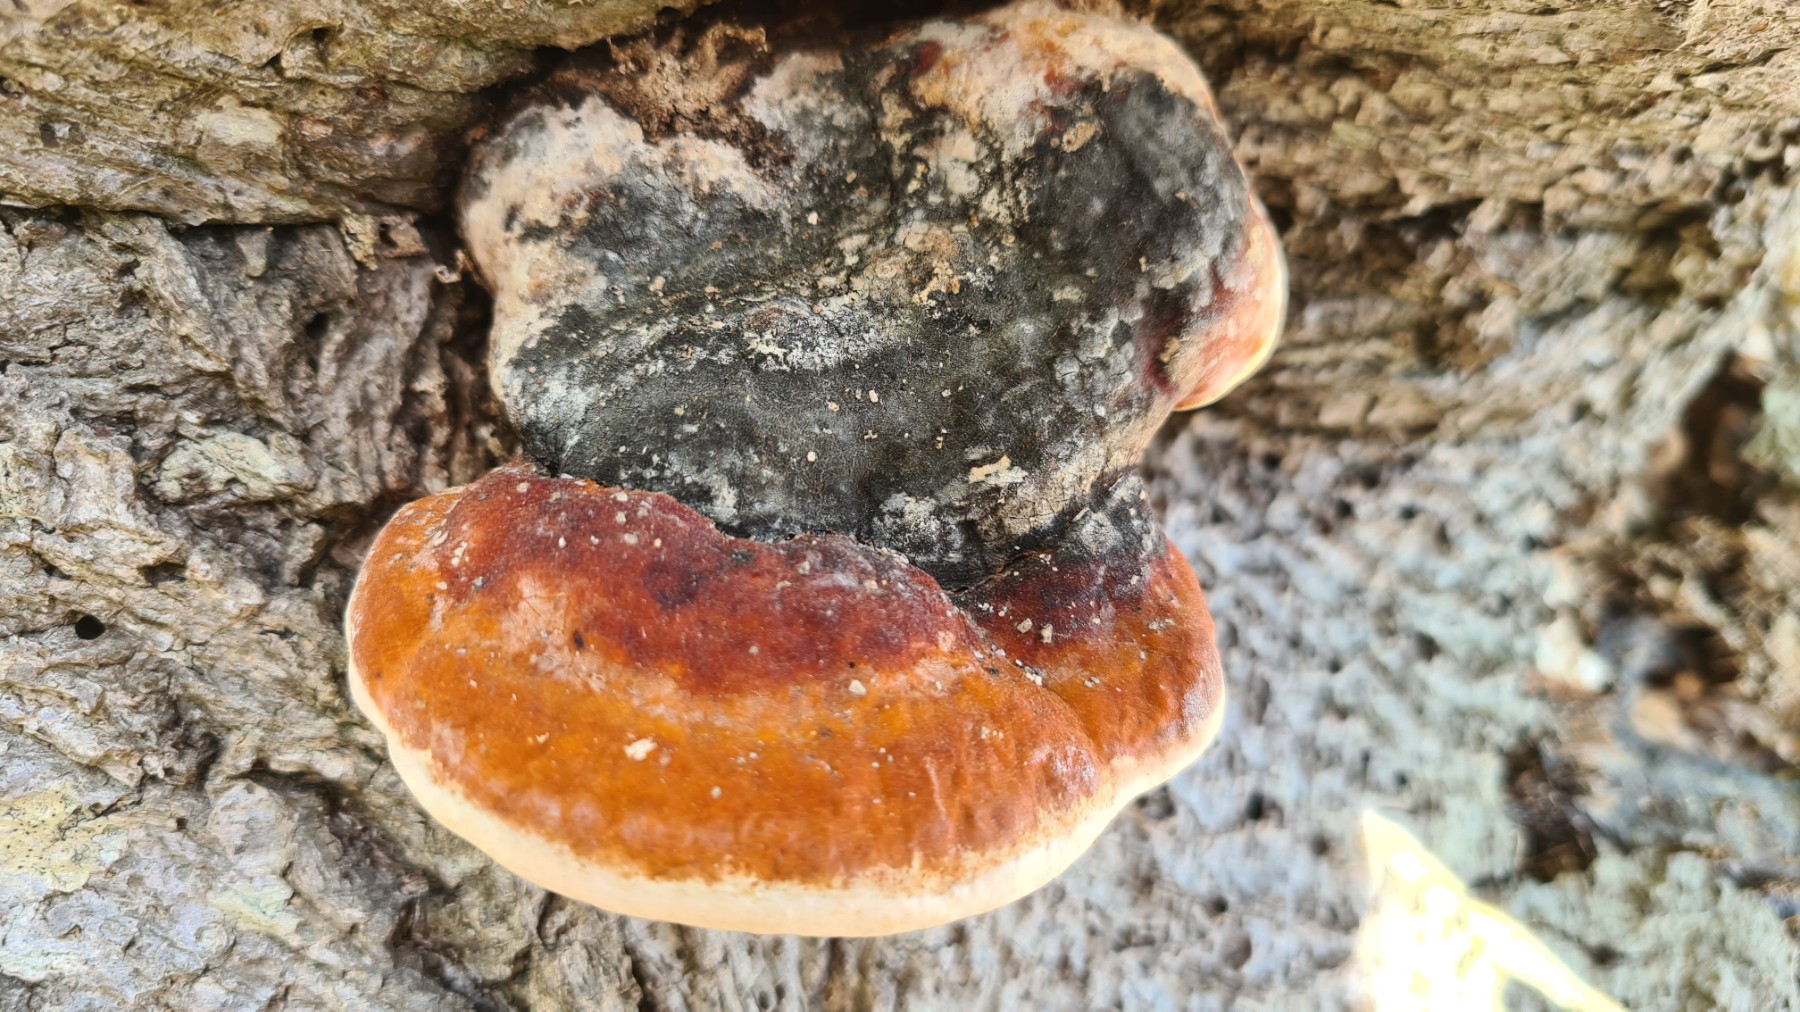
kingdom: Fungi
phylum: Basidiomycota
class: Agaricomycetes
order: Polyporales
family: Fomitopsidaceae
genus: Fomitopsis
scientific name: Fomitopsis pinicola
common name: randbæltet hovporesvamp
